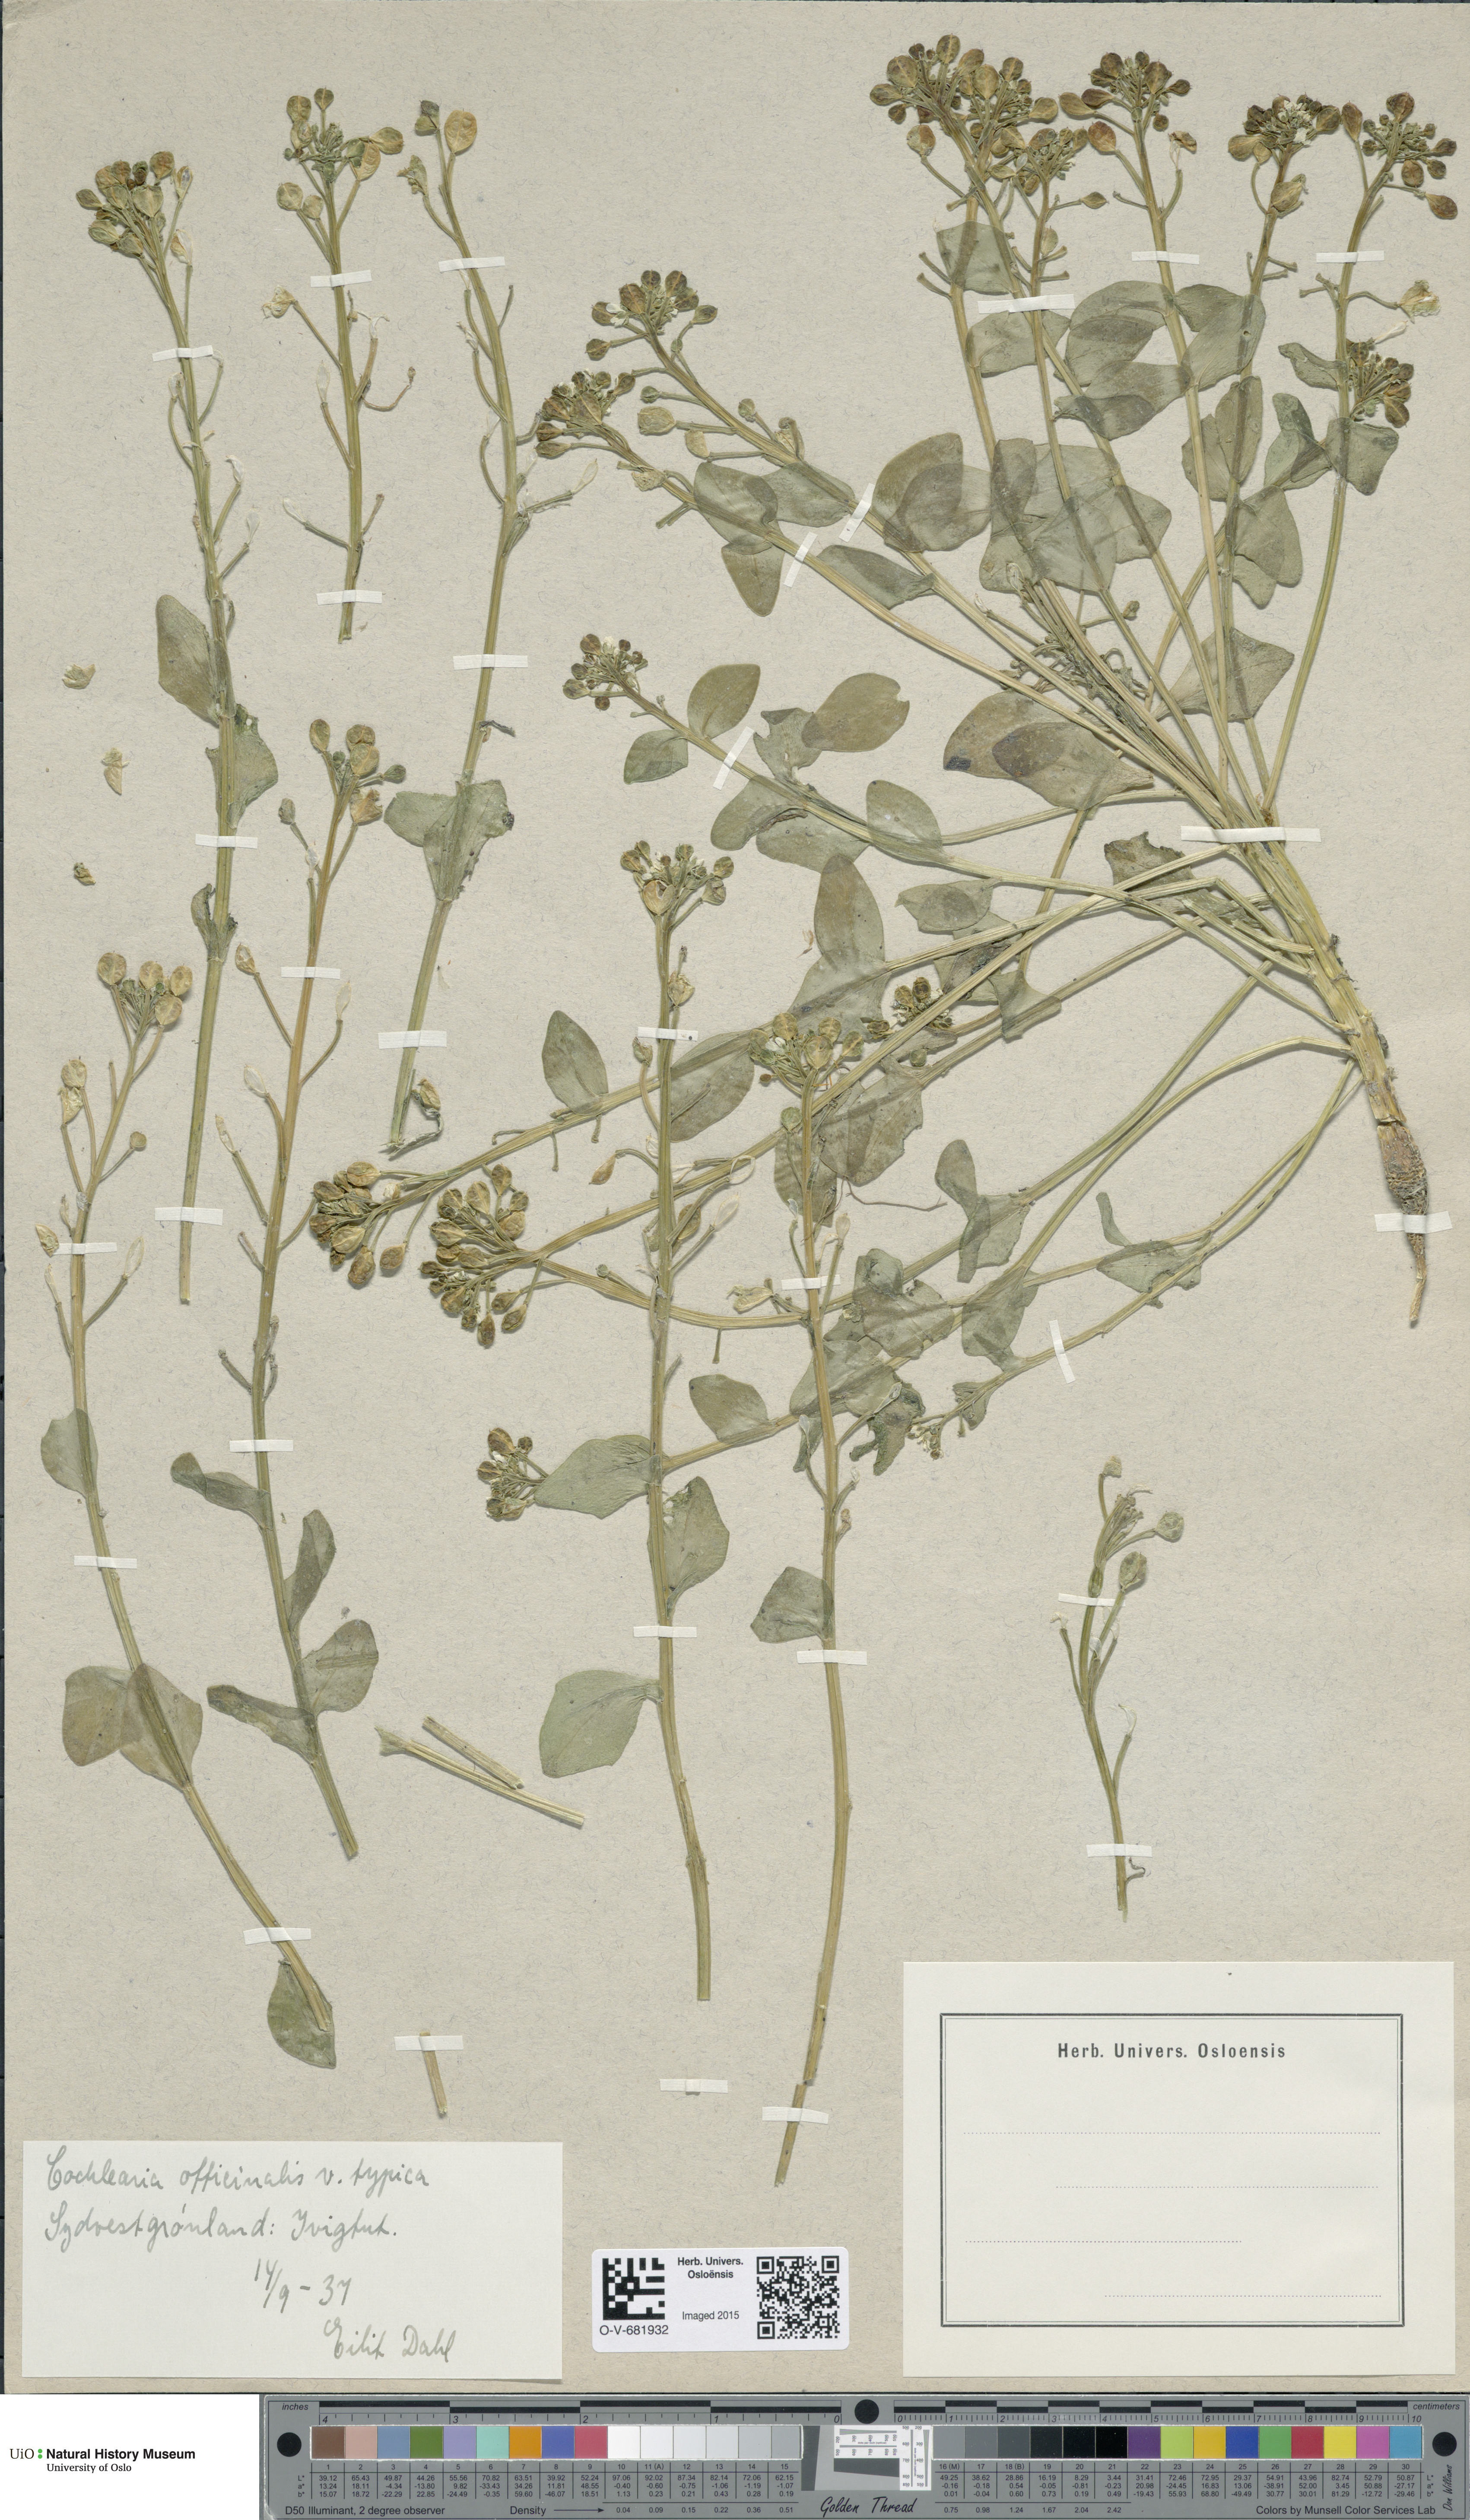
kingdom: Plantae
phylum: Tracheophyta
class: Magnoliopsida
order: Brassicales
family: Brassicaceae
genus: Cochlearia
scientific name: Cochlearia officinalis
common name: Scurvy-grass
